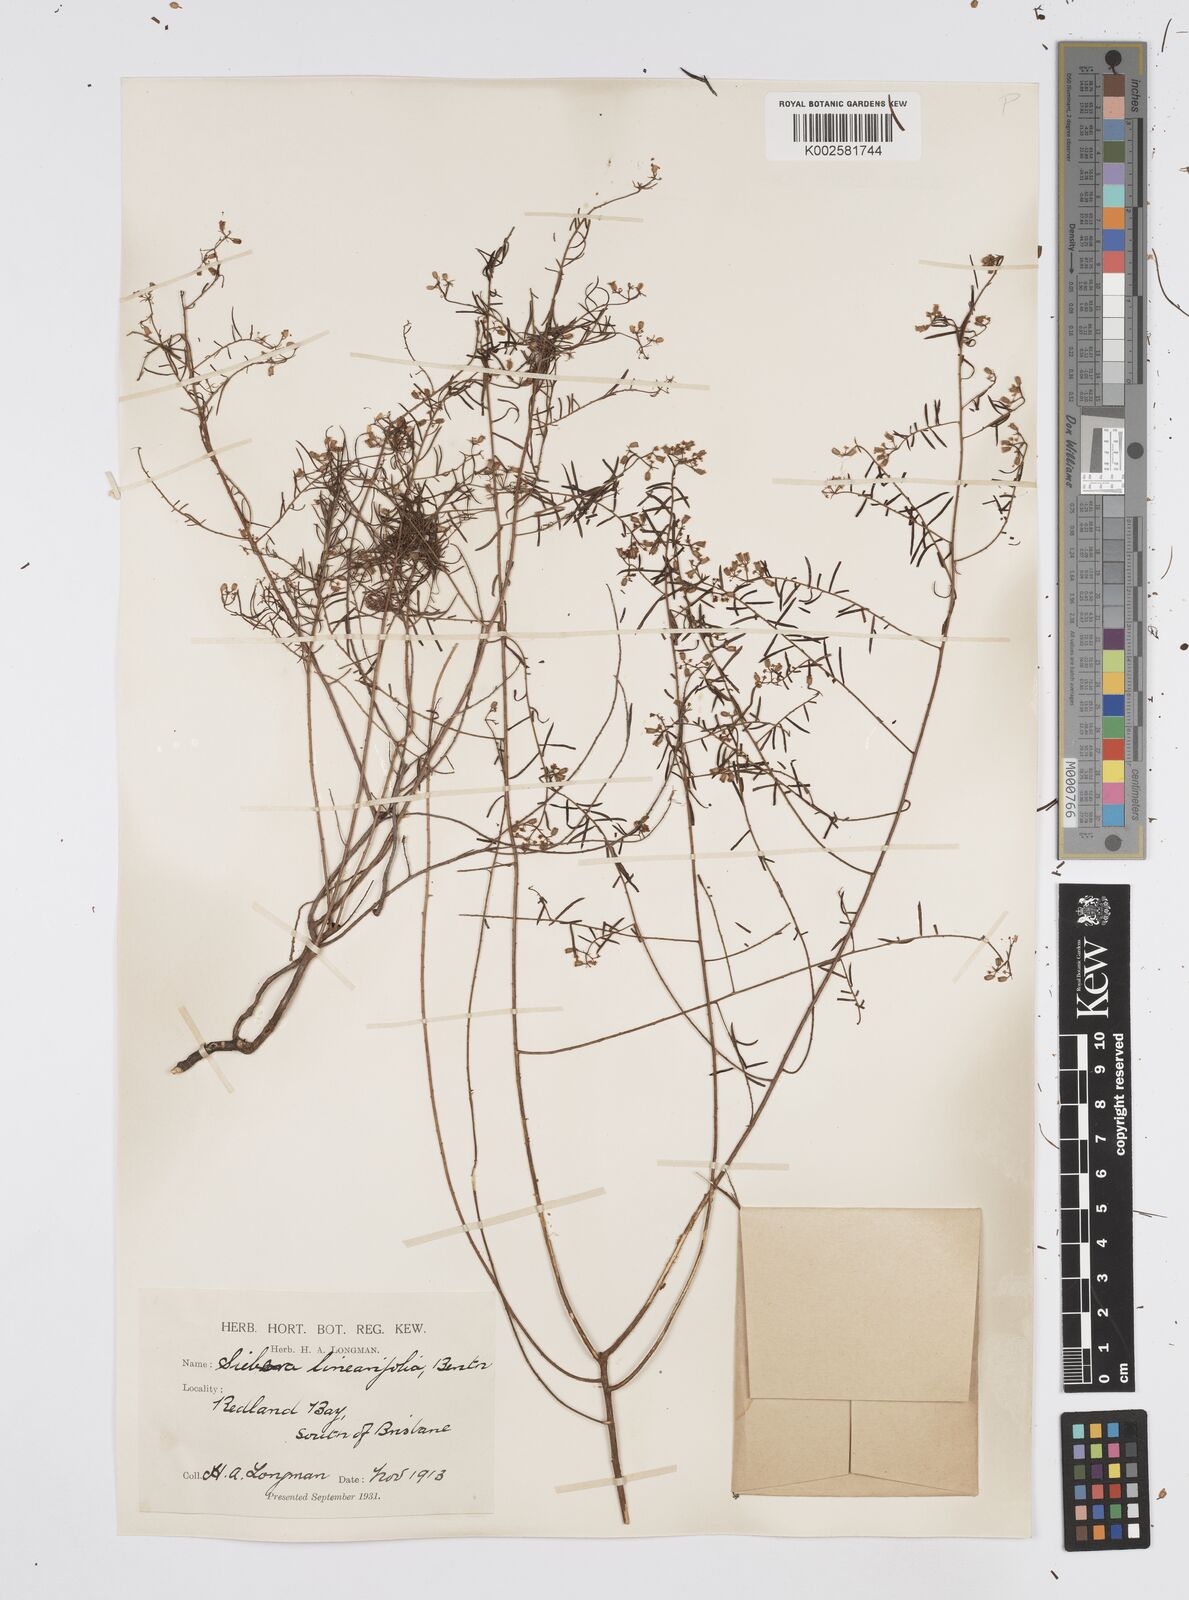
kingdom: Plantae
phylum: Tracheophyta
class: Magnoliopsida
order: Apiales
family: Apiaceae
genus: Platysace
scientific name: Platysace ericoides
